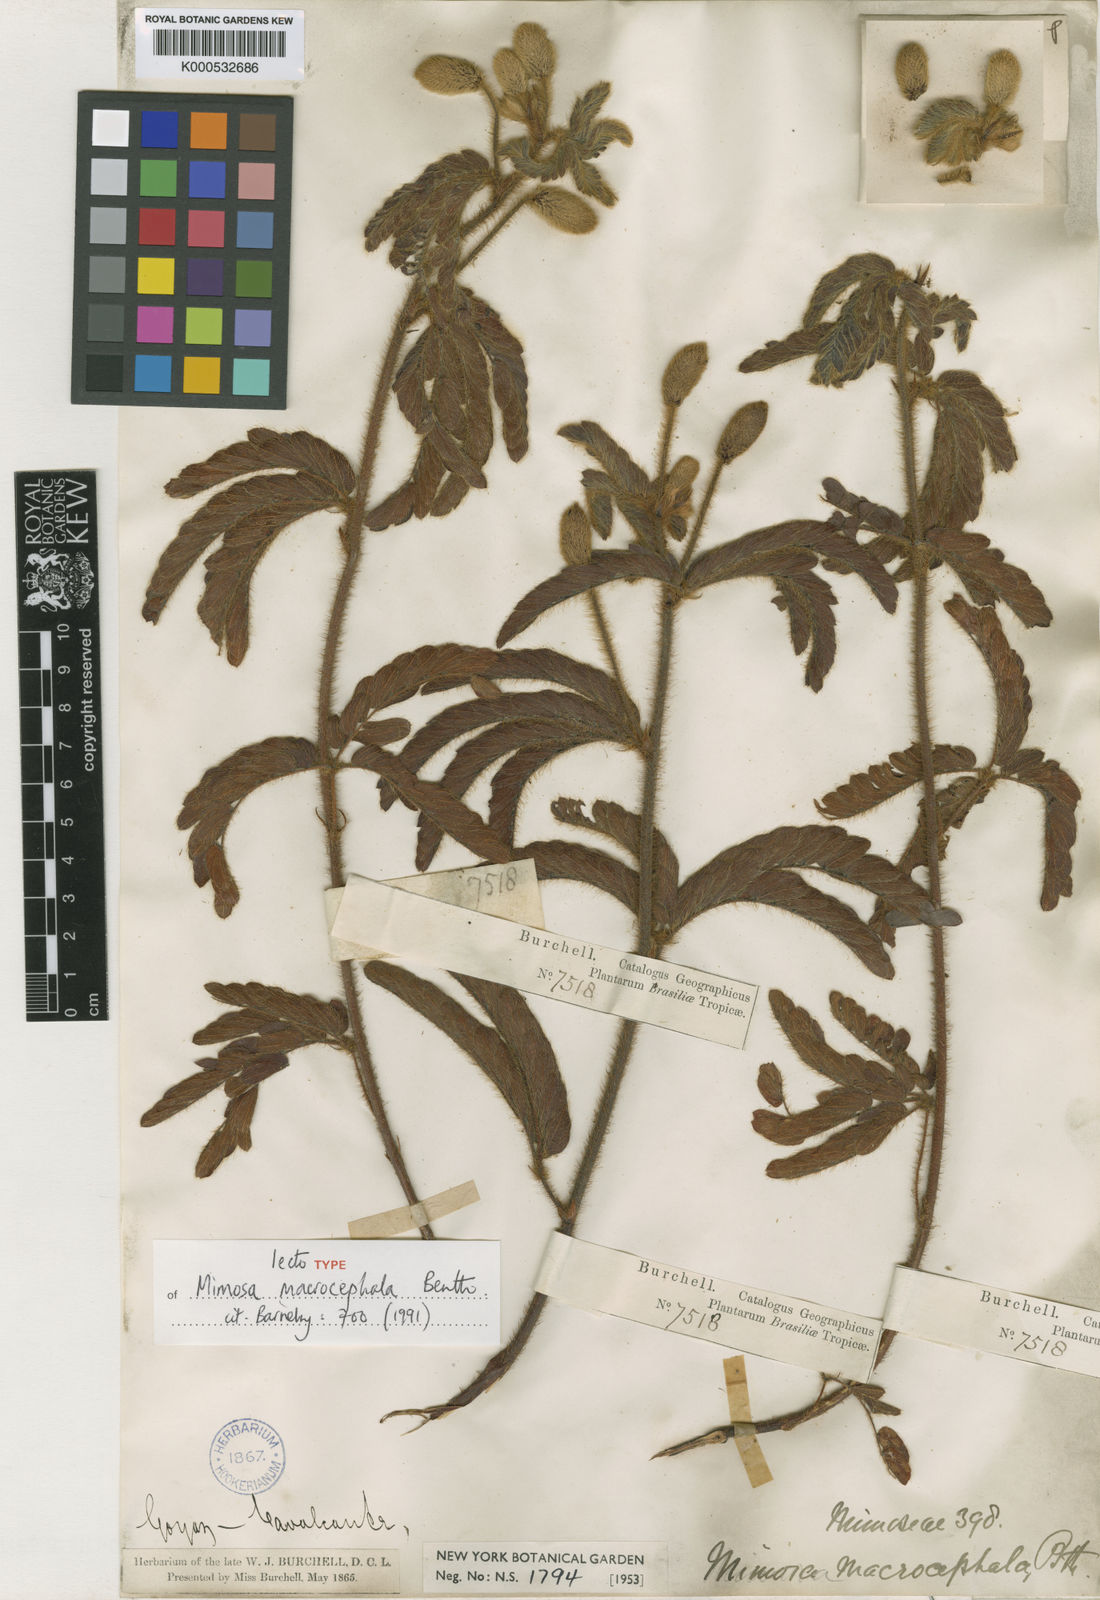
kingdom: Plantae
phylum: Tracheophyta
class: Magnoliopsida
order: Fabales
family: Fabaceae
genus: Mimosa
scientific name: Mimosa macrocephala
